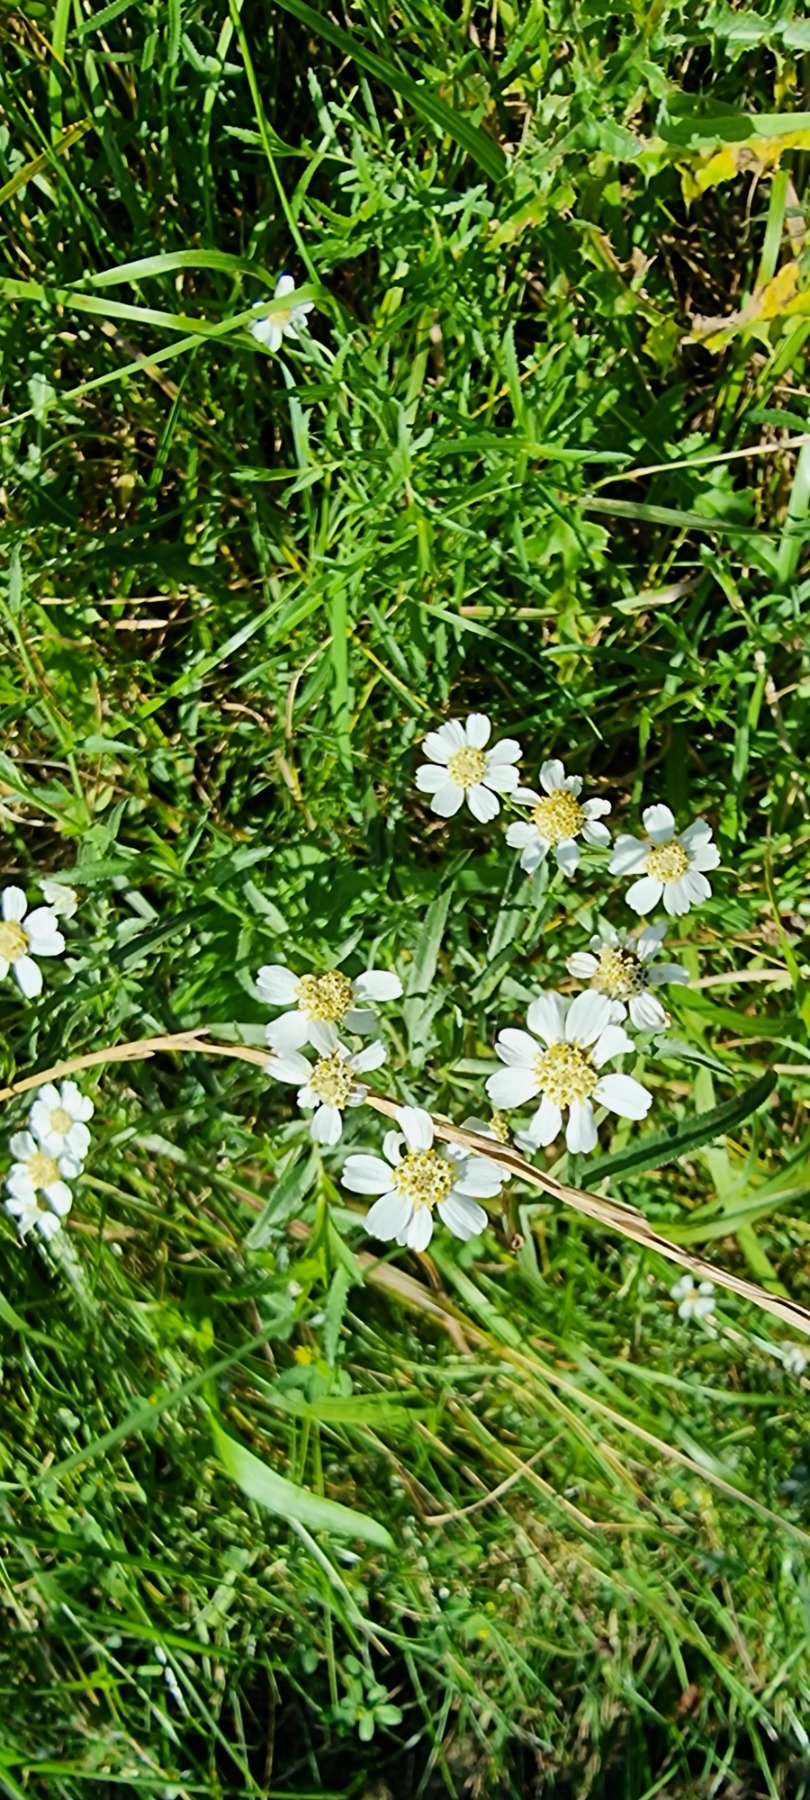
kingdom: Plantae
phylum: Tracheophyta
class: Magnoliopsida
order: Asterales
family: Asteraceae
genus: Achillea
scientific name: Achillea ptarmica
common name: Nyse-røllike
